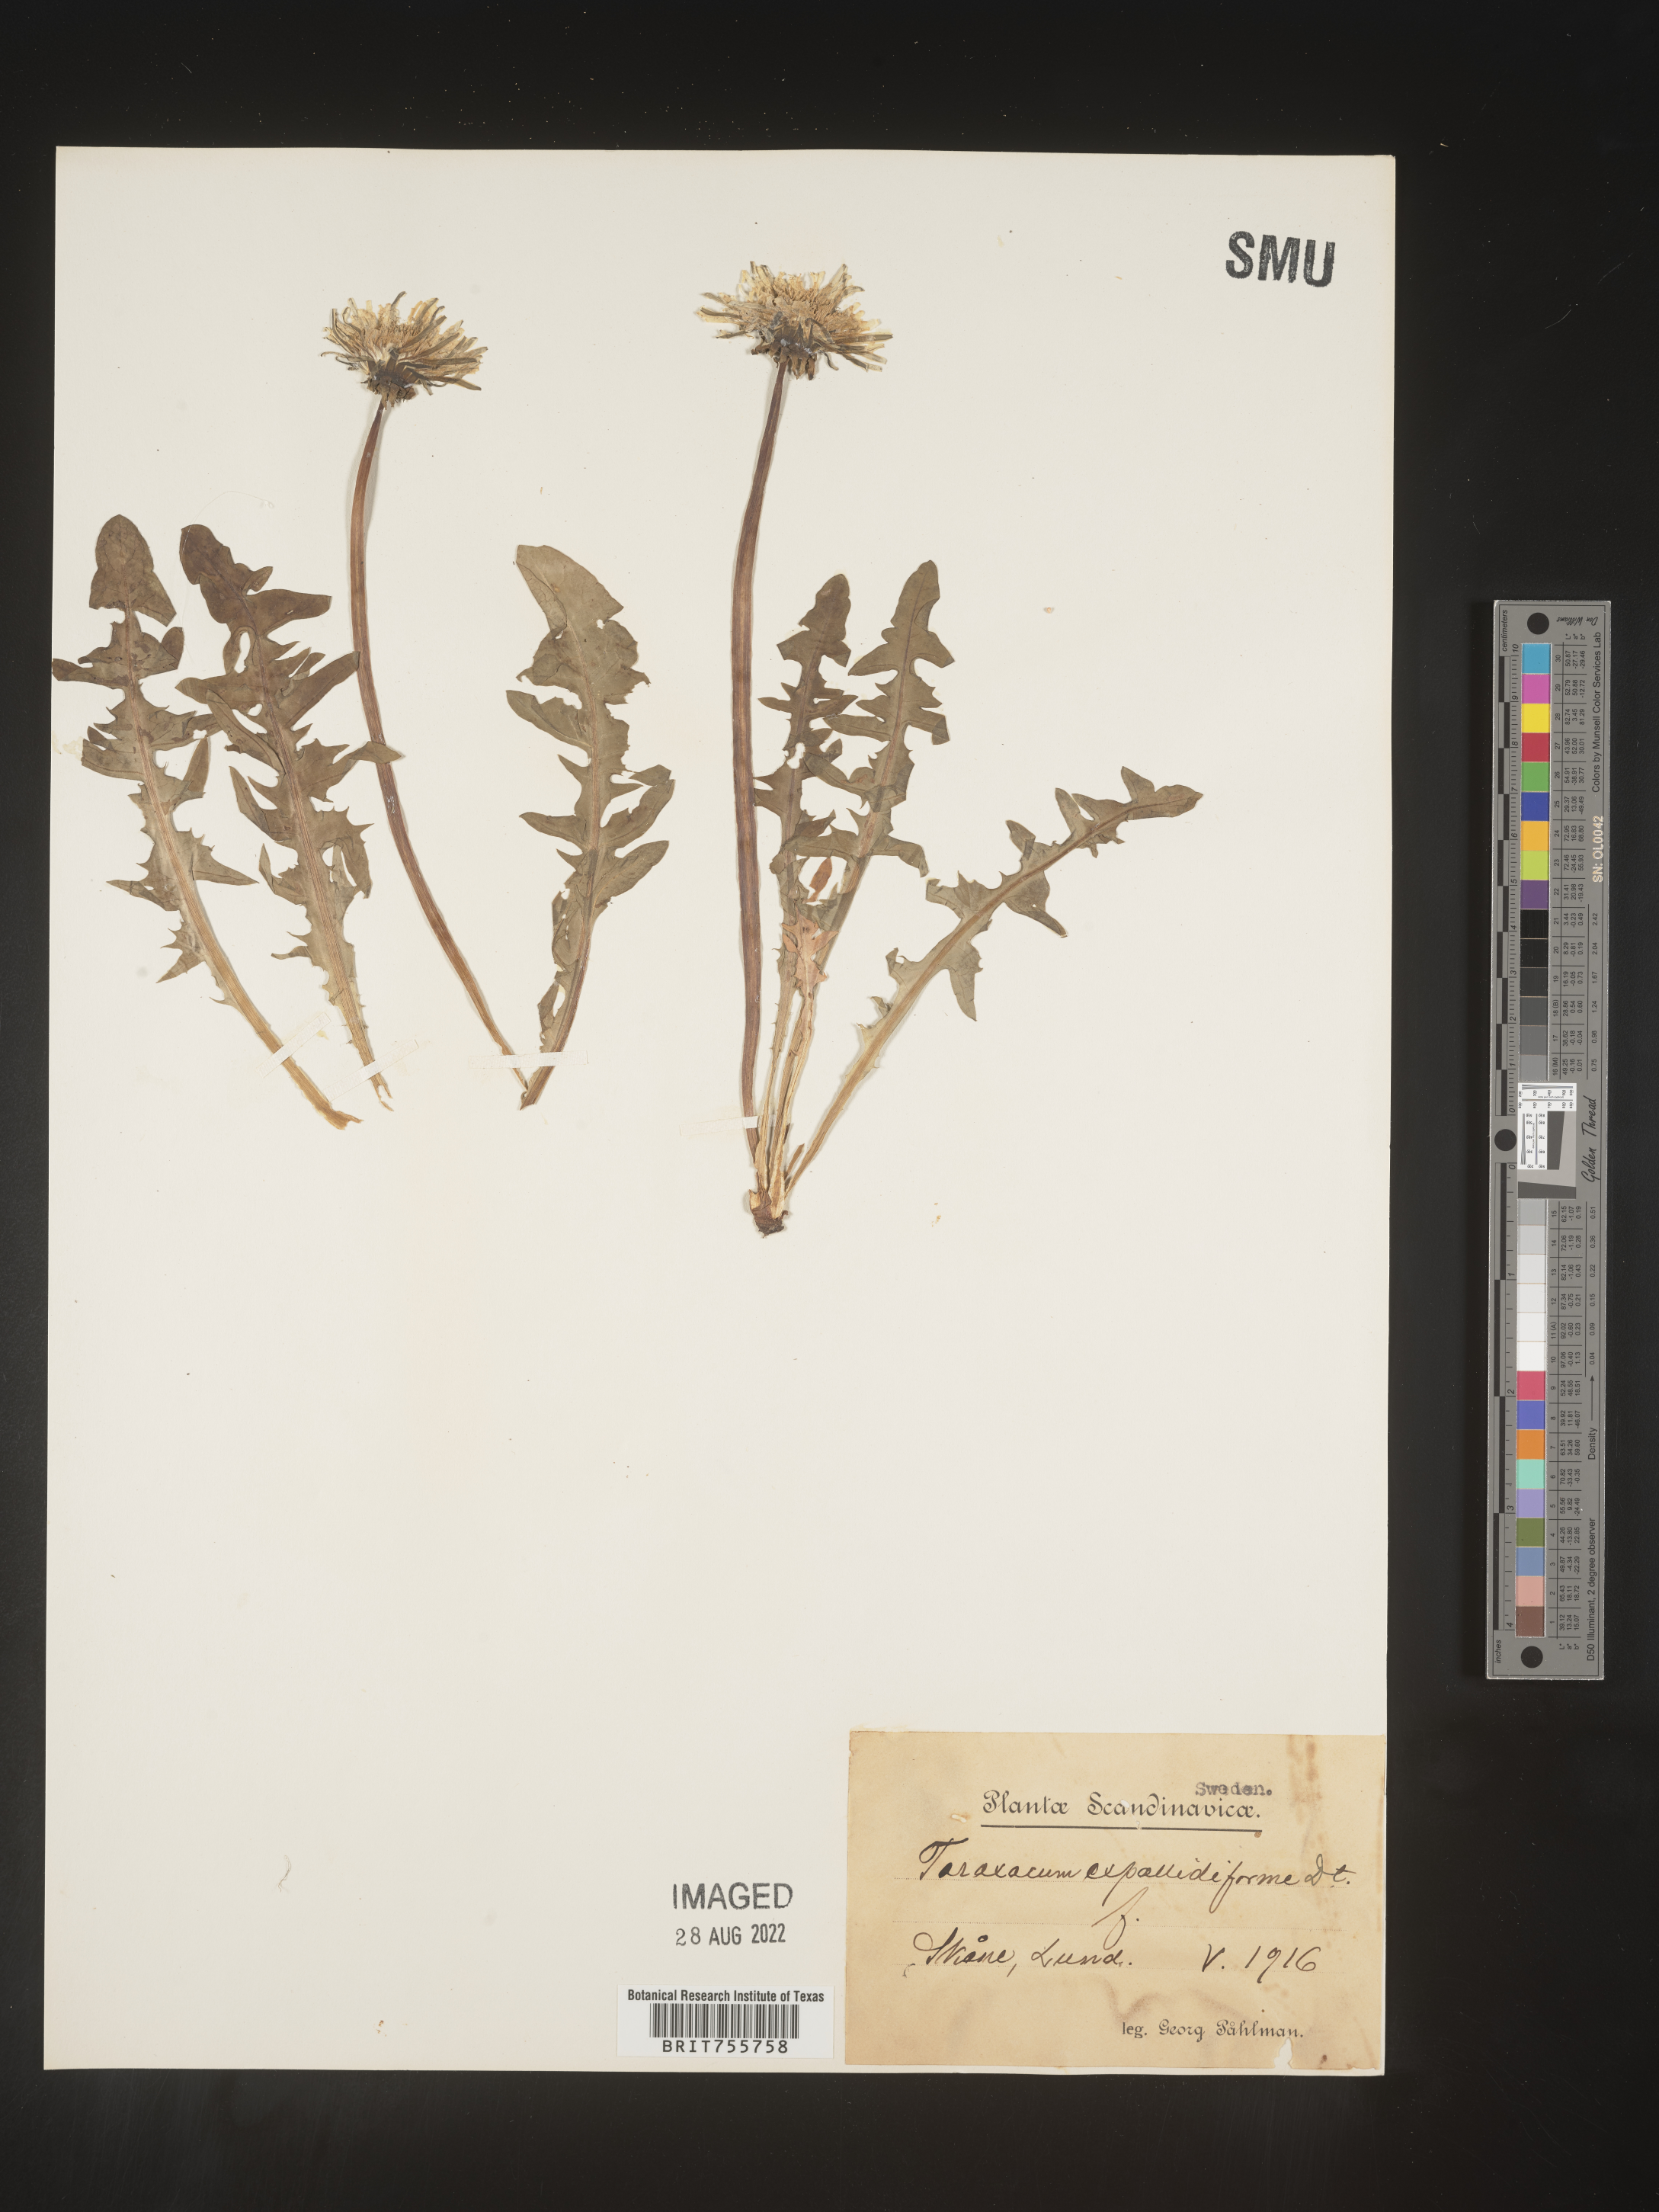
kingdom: Plantae
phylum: Tracheophyta
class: Magnoliopsida
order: Asterales
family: Asteraceae
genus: Taraxacum
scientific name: Taraxacum
